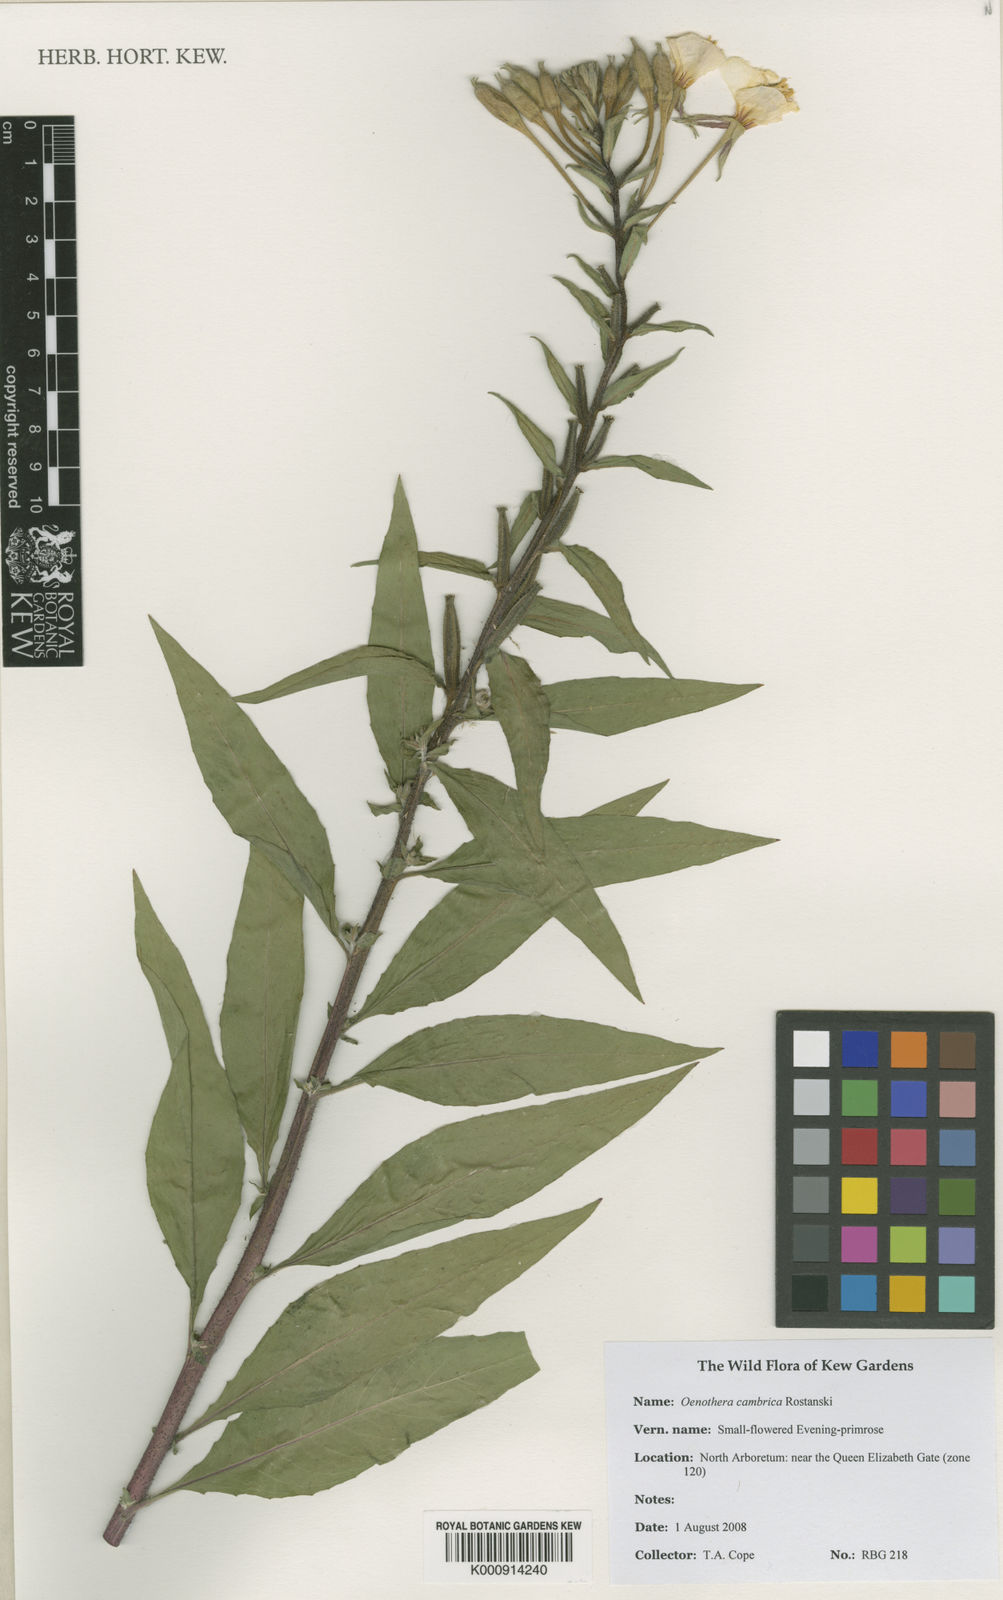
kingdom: Plantae
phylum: Tracheophyta
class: Magnoliopsida
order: Myrtales
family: Onagraceae
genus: Oenothera
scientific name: Oenothera cambrica
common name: Small-flowered evening-primrose
